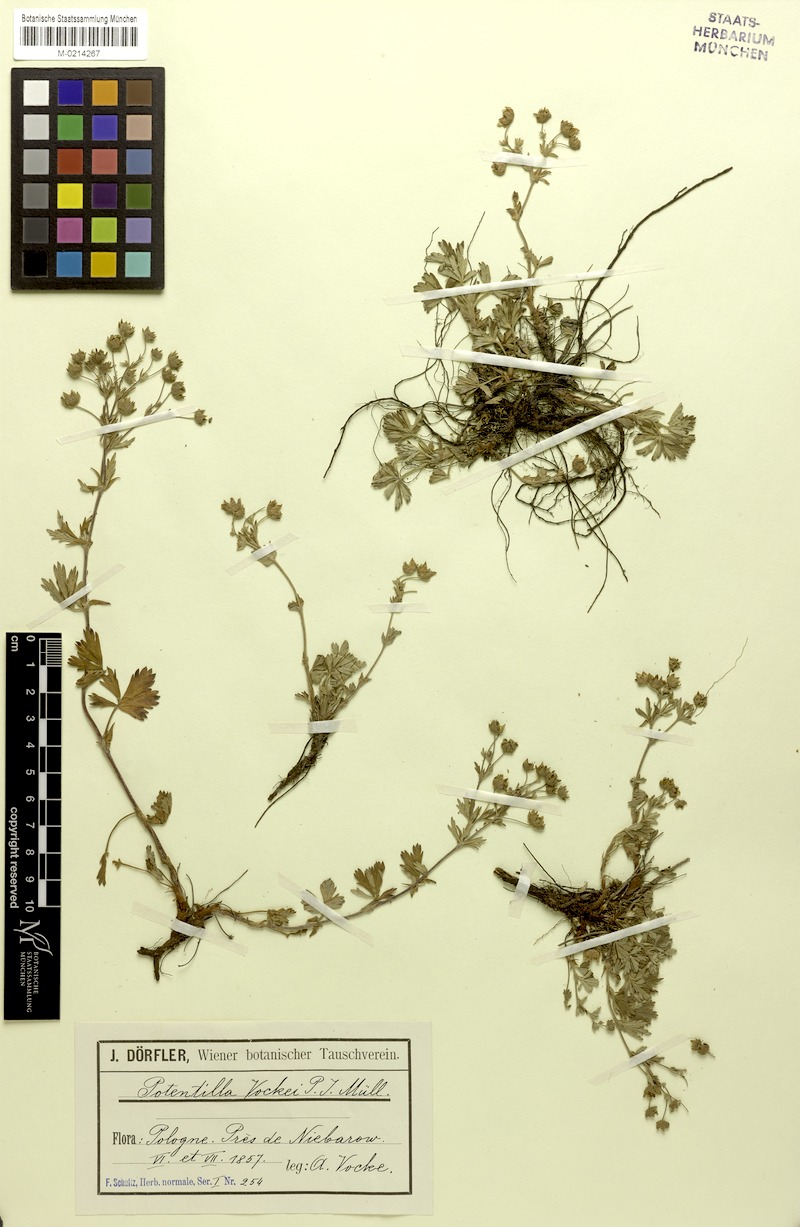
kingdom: Plantae
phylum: Tracheophyta
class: Magnoliopsida
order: Rosales
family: Rosaceae
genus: Potentilla
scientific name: Potentilla collina
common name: Palmleaf cinquefoil
